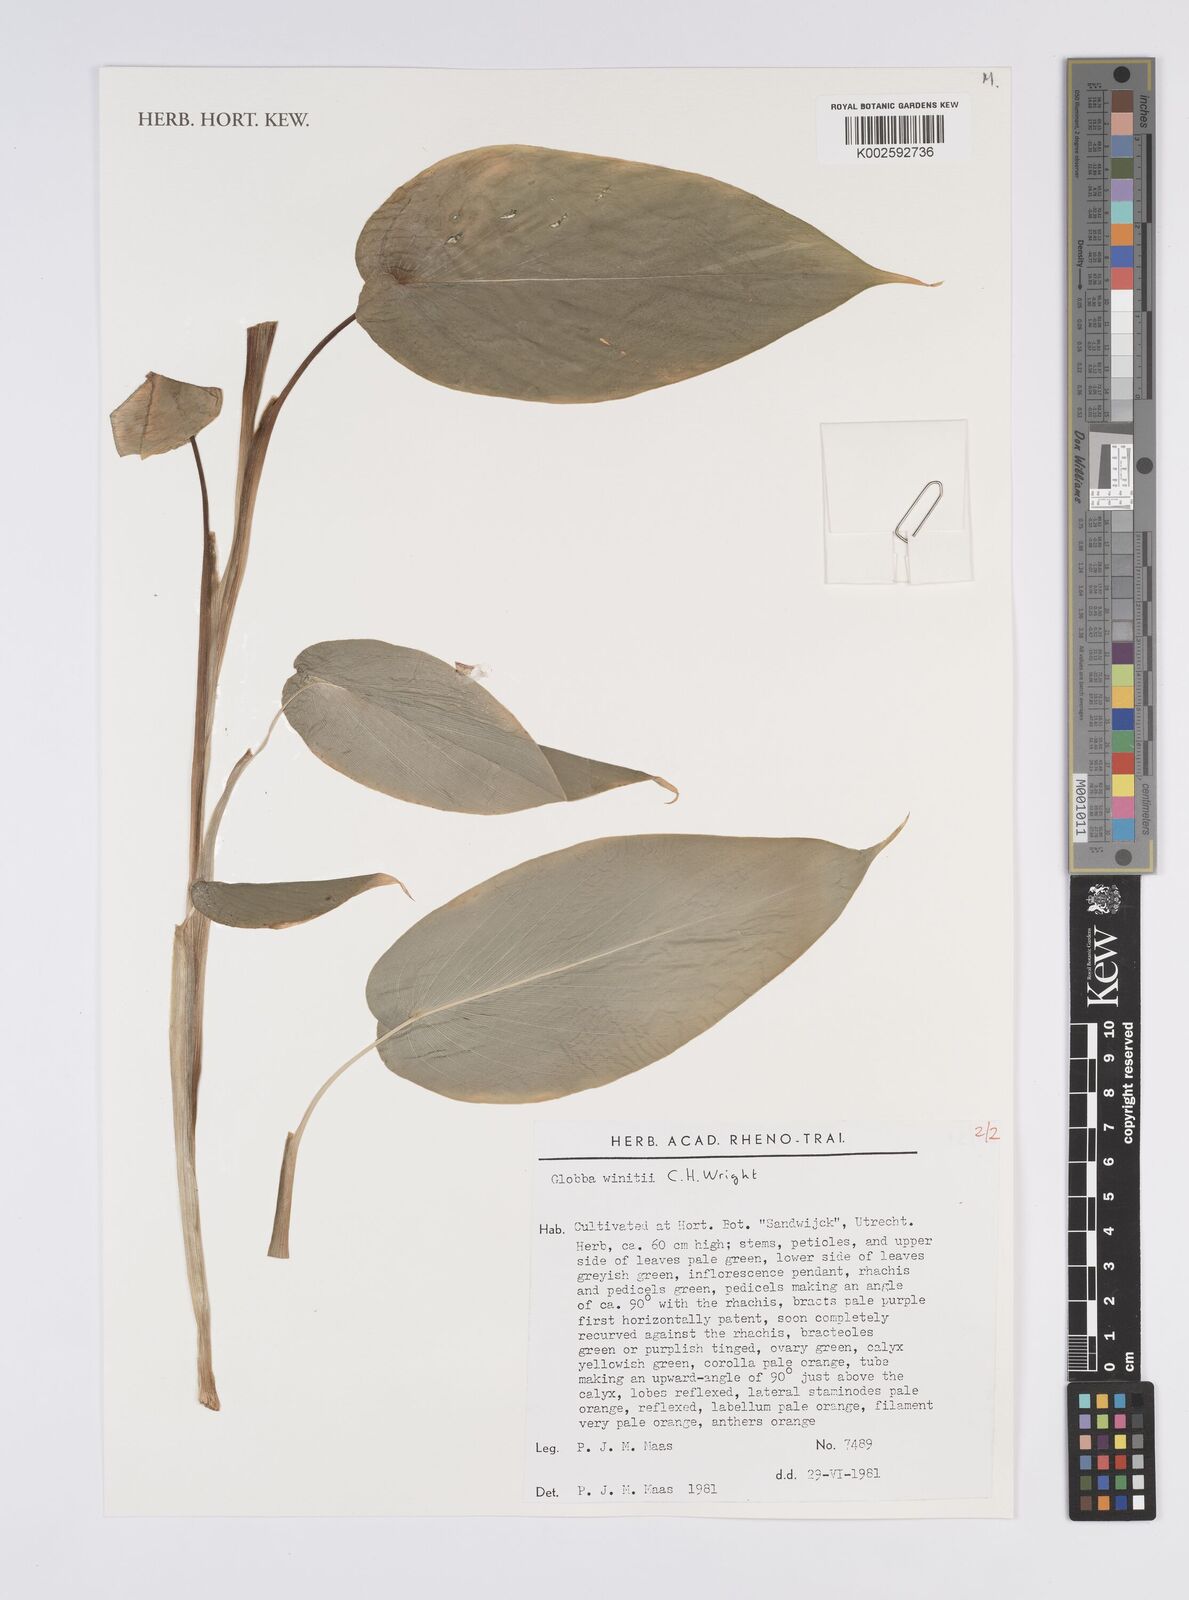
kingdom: Plantae
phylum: Tracheophyta
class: Liliopsida
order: Zingiberales
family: Zingiberaceae
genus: Globba
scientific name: Globba winitii
